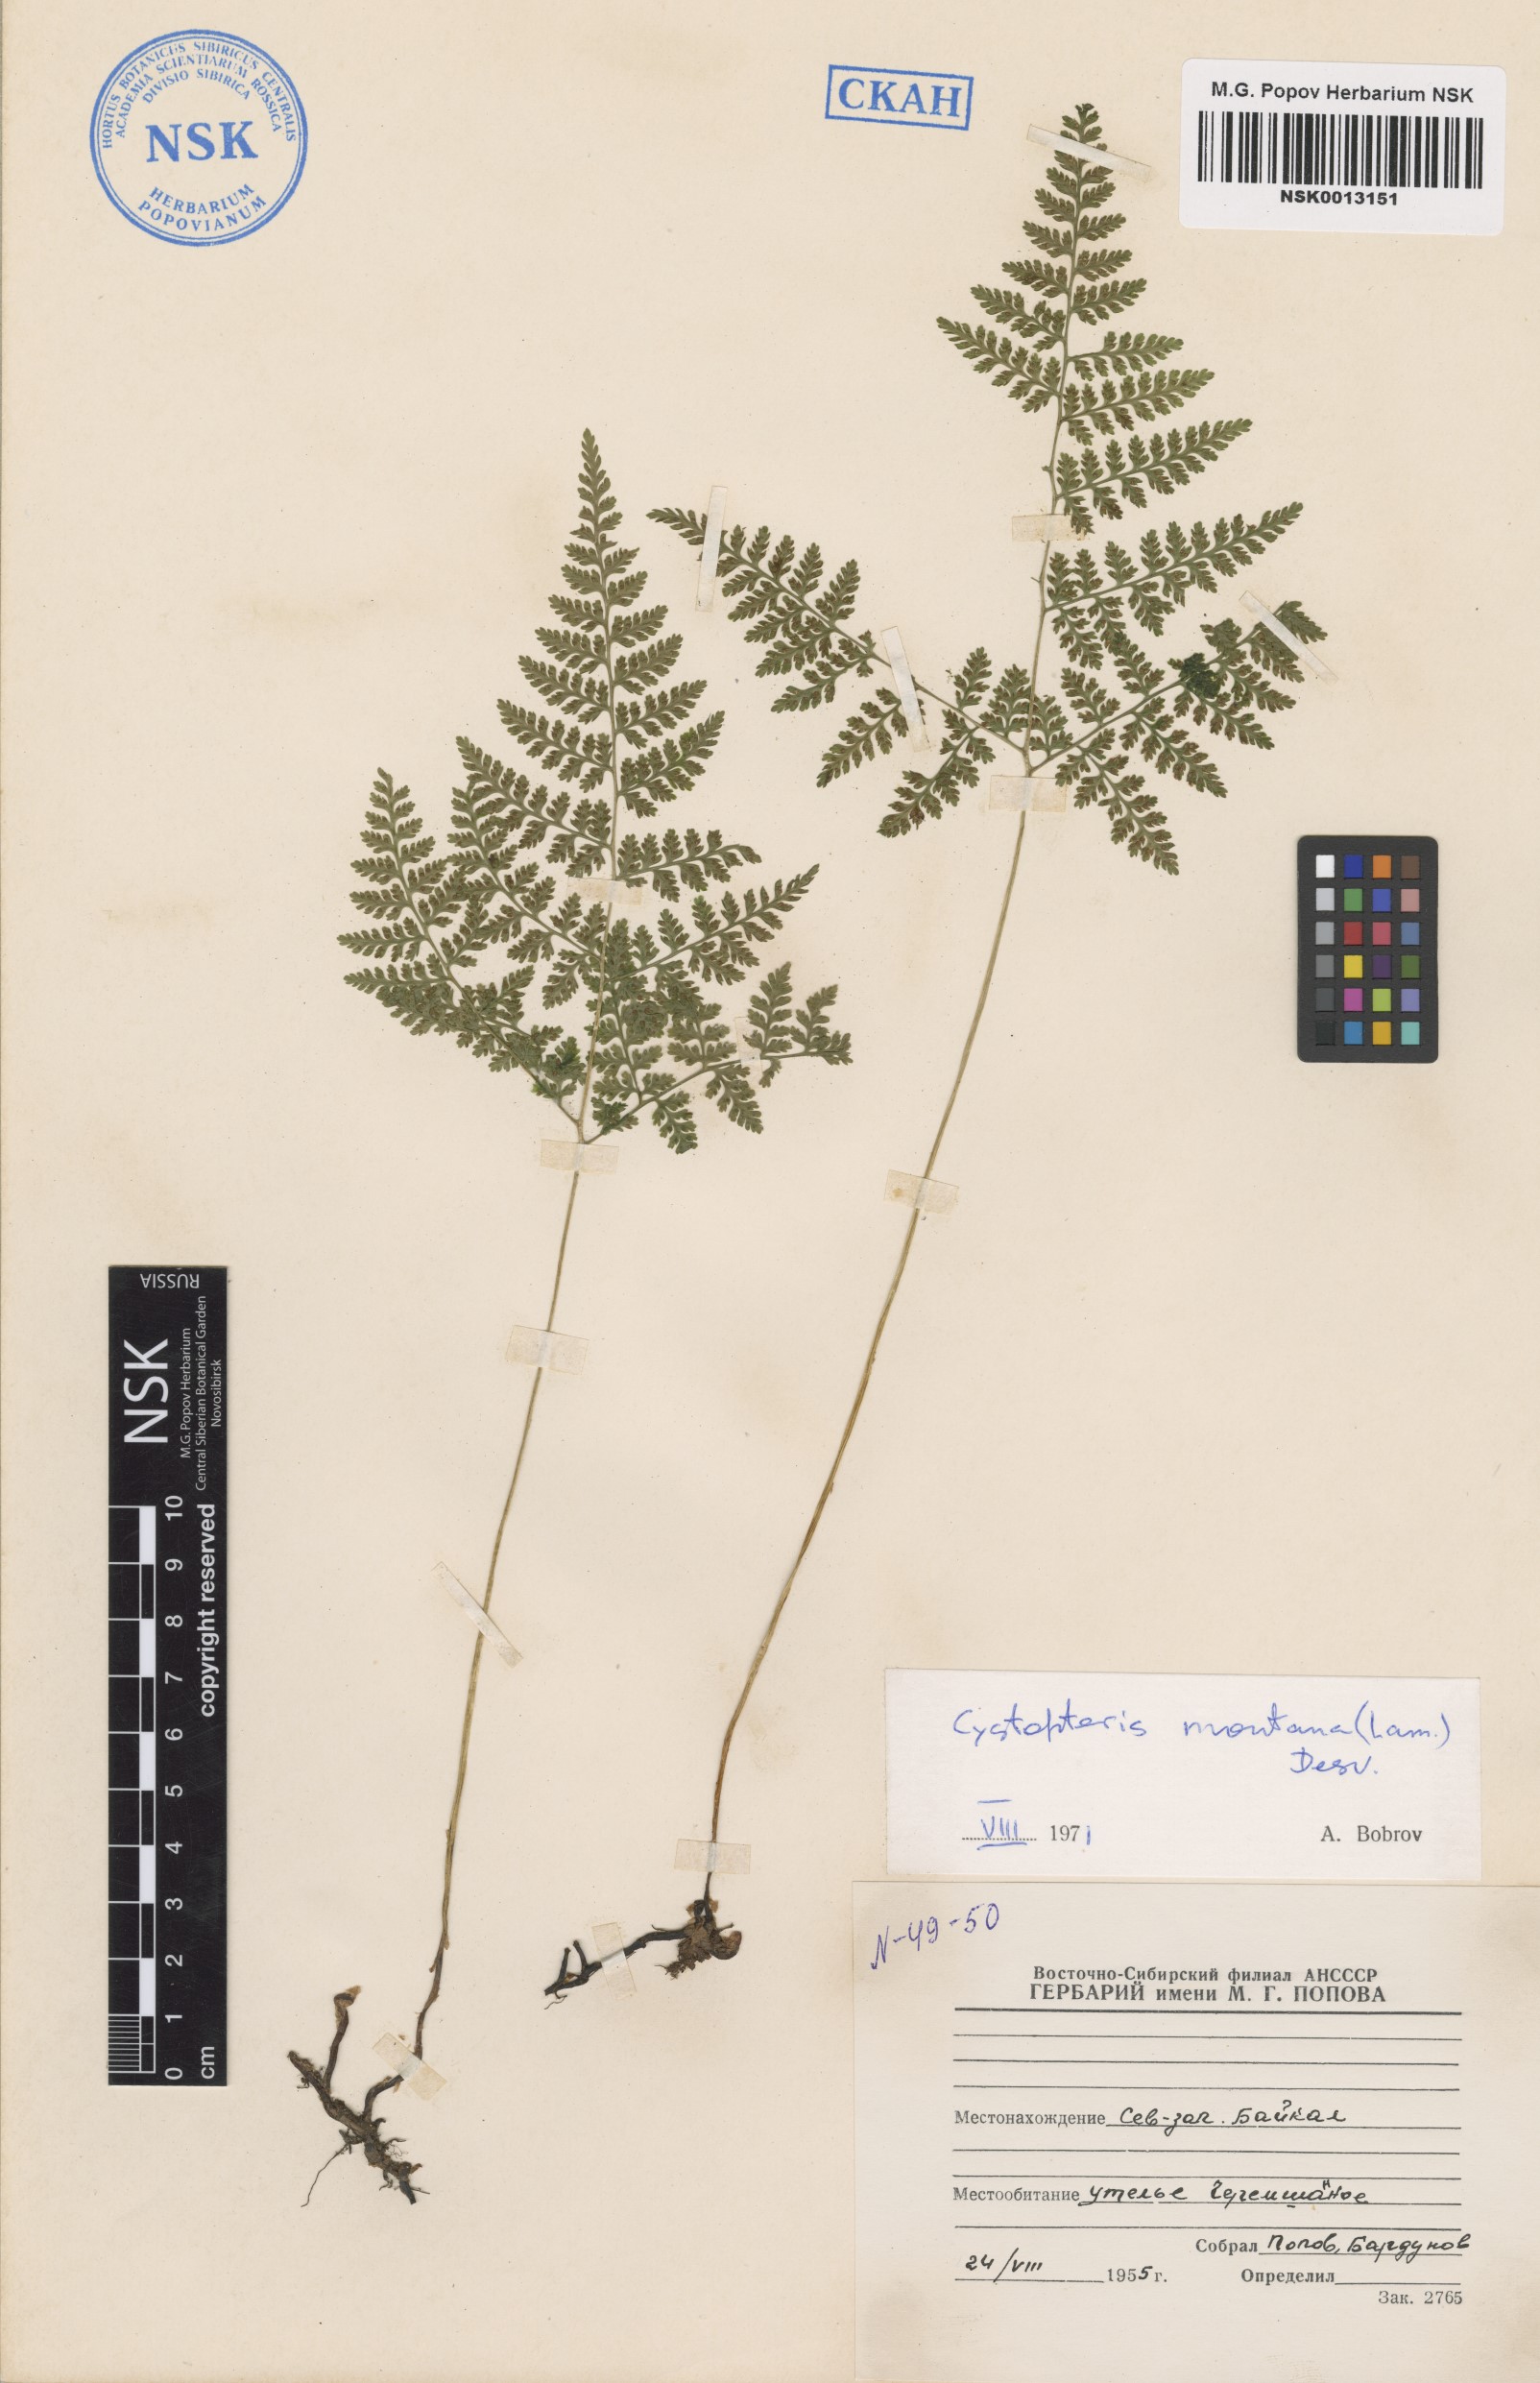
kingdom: Plantae
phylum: Tracheophyta
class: Polypodiopsida
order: Polypodiales
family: Cystopteridaceae
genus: Cystopteris
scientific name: Cystopteris montana
